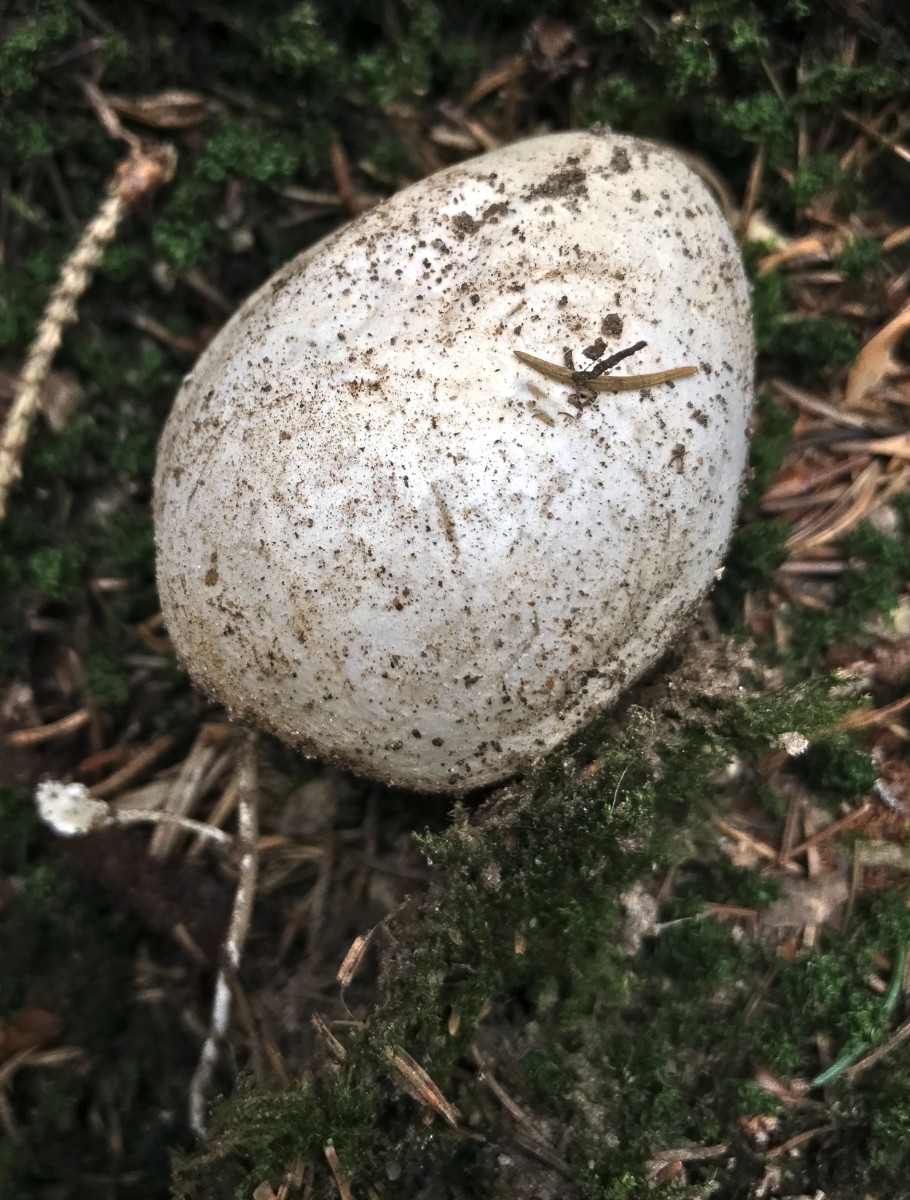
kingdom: Fungi
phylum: Basidiomycota
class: Agaricomycetes
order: Phallales
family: Phallaceae
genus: Phallus
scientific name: Phallus impudicus
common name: almindelig stinksvamp
